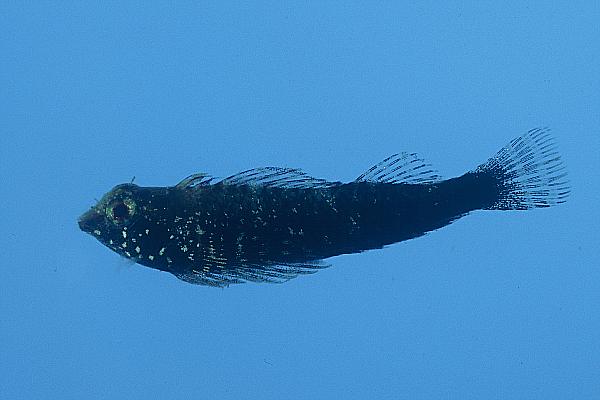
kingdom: Animalia
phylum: Chordata
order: Perciformes
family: Tripterygiidae
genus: Enneapterygius
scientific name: Enneapterygius philippinus
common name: Minute triplefin
